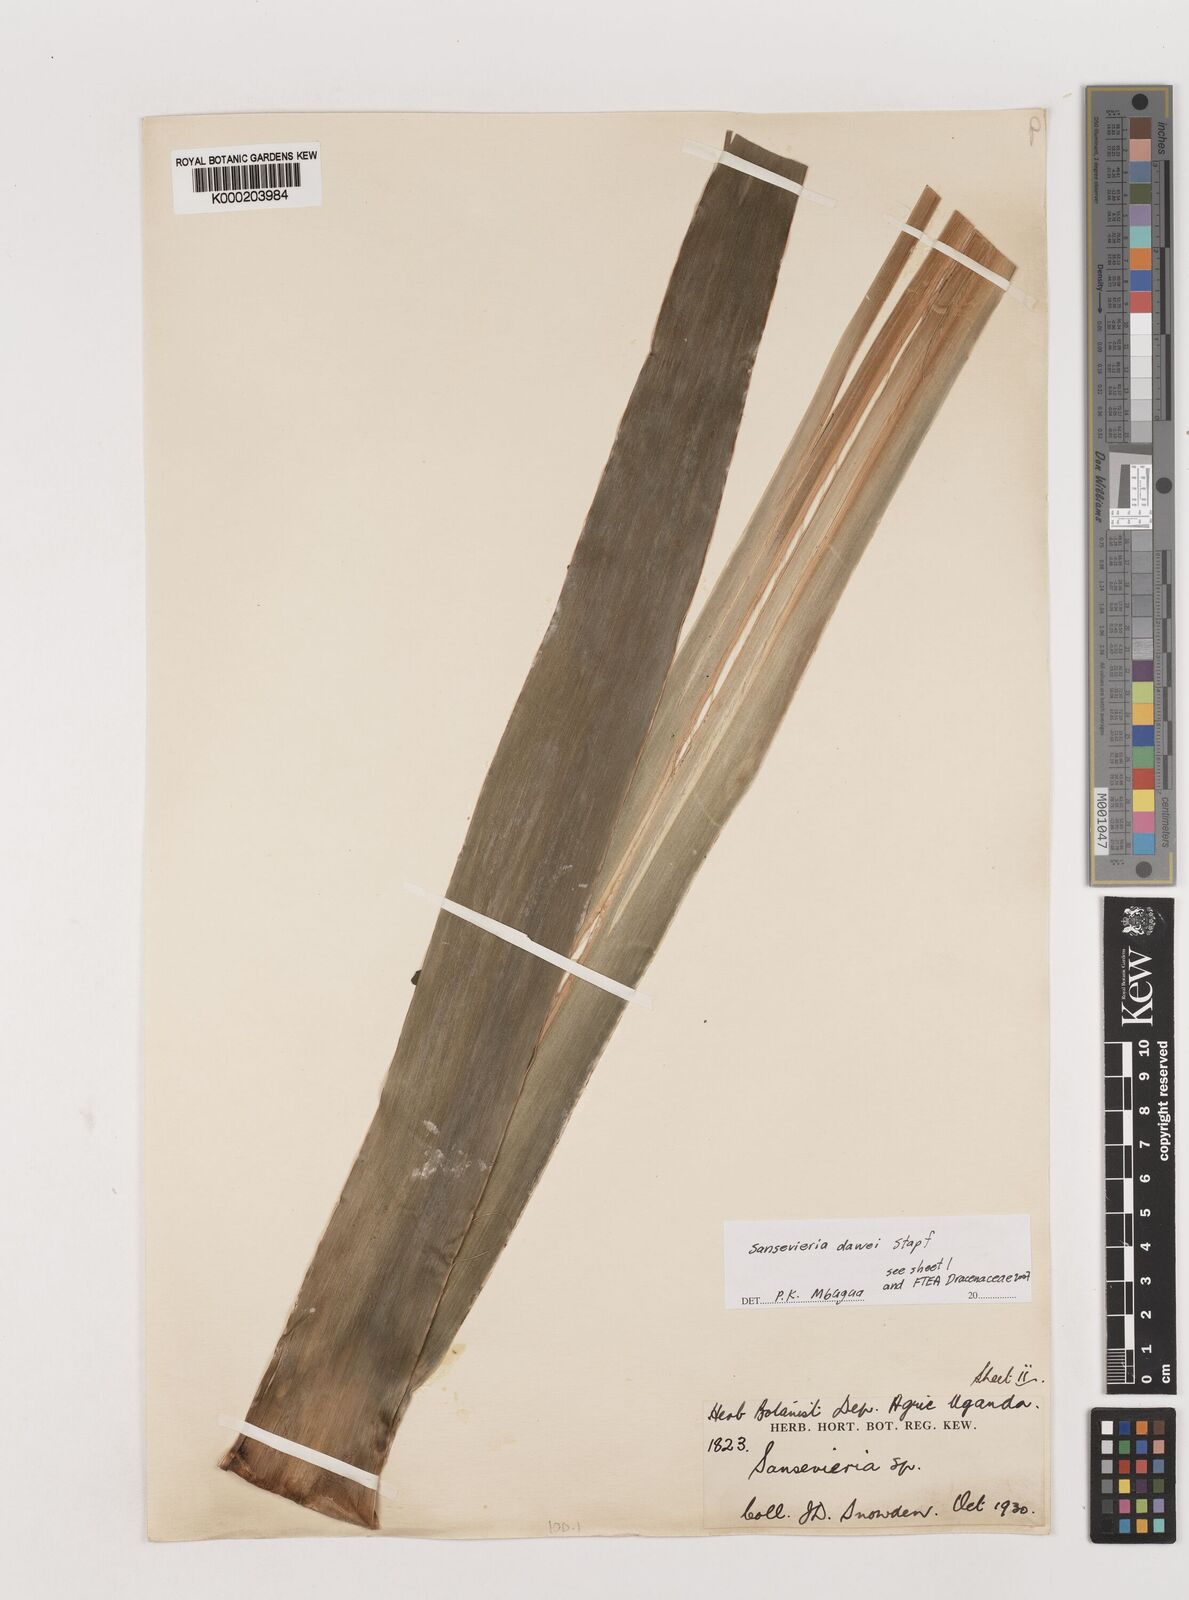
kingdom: Plantae
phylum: Tracheophyta
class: Liliopsida
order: Asparagales
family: Asparagaceae
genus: Dracaena
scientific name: Dracaena dawei
